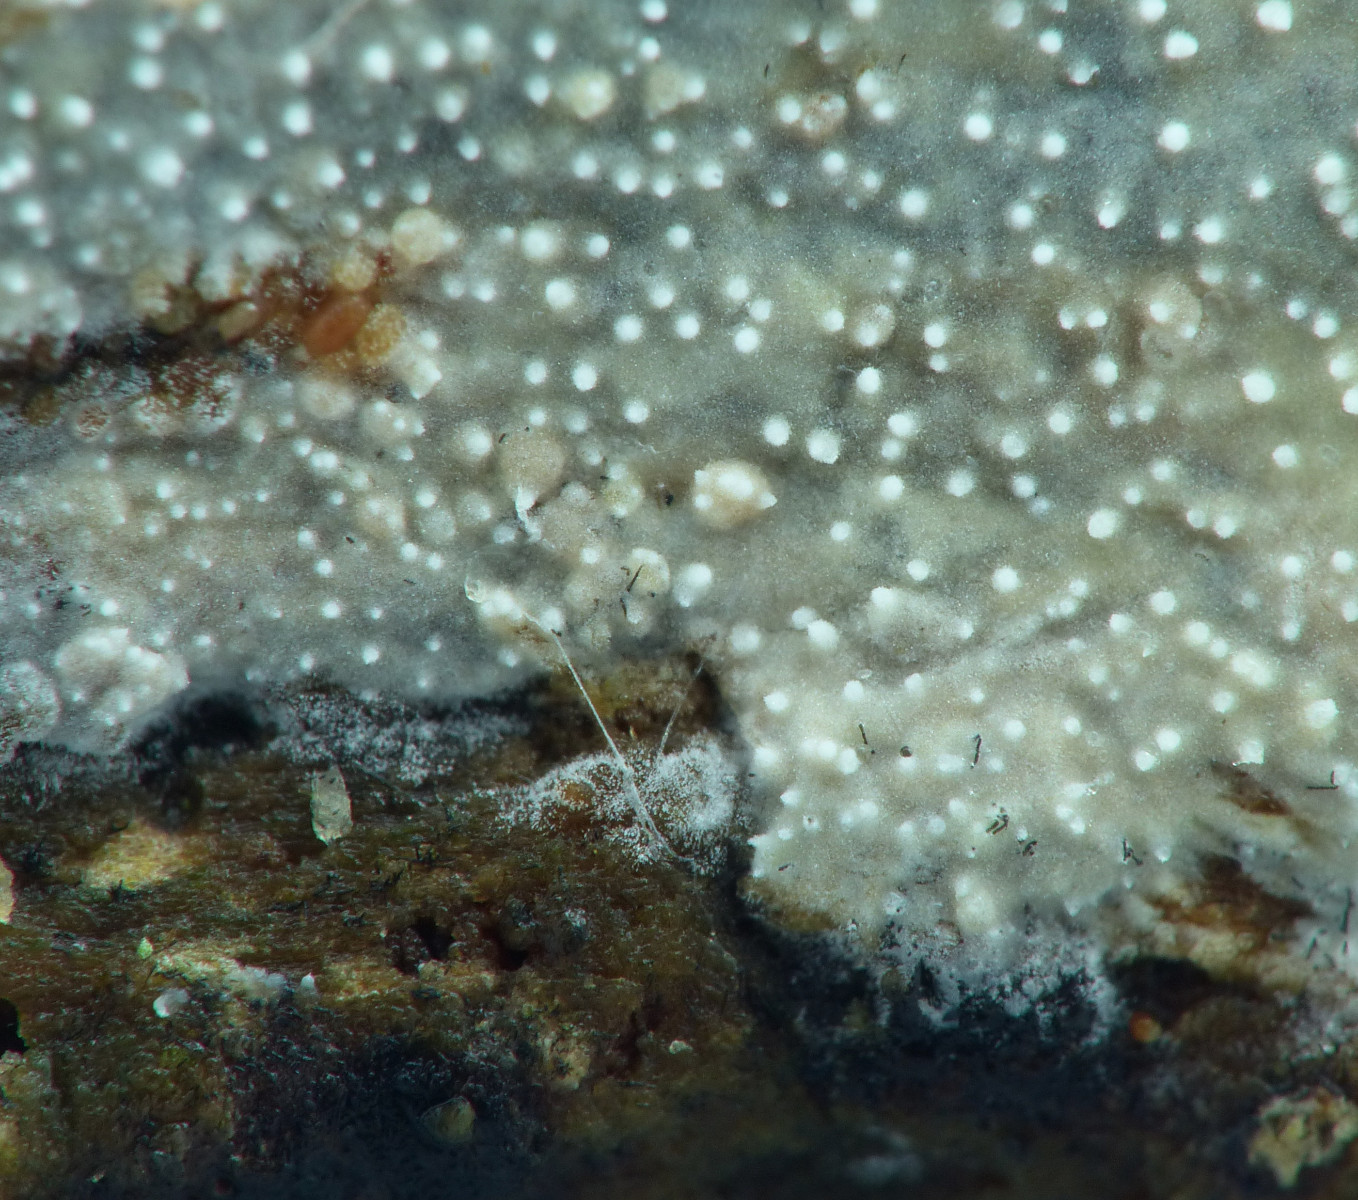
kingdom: Fungi
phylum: Basidiomycota
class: Agaricomycetes
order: Trechisporales
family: Hydnodontaceae
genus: Brevicellicium
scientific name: Brevicellicium olivascens
